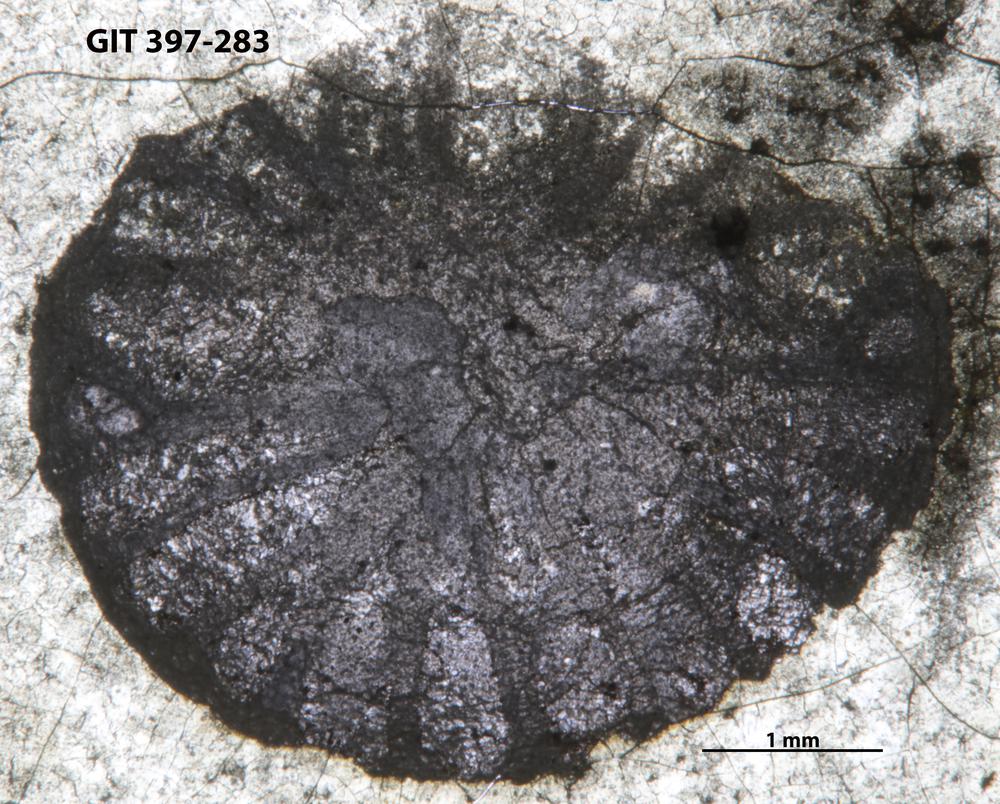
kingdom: Animalia
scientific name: Animalia
